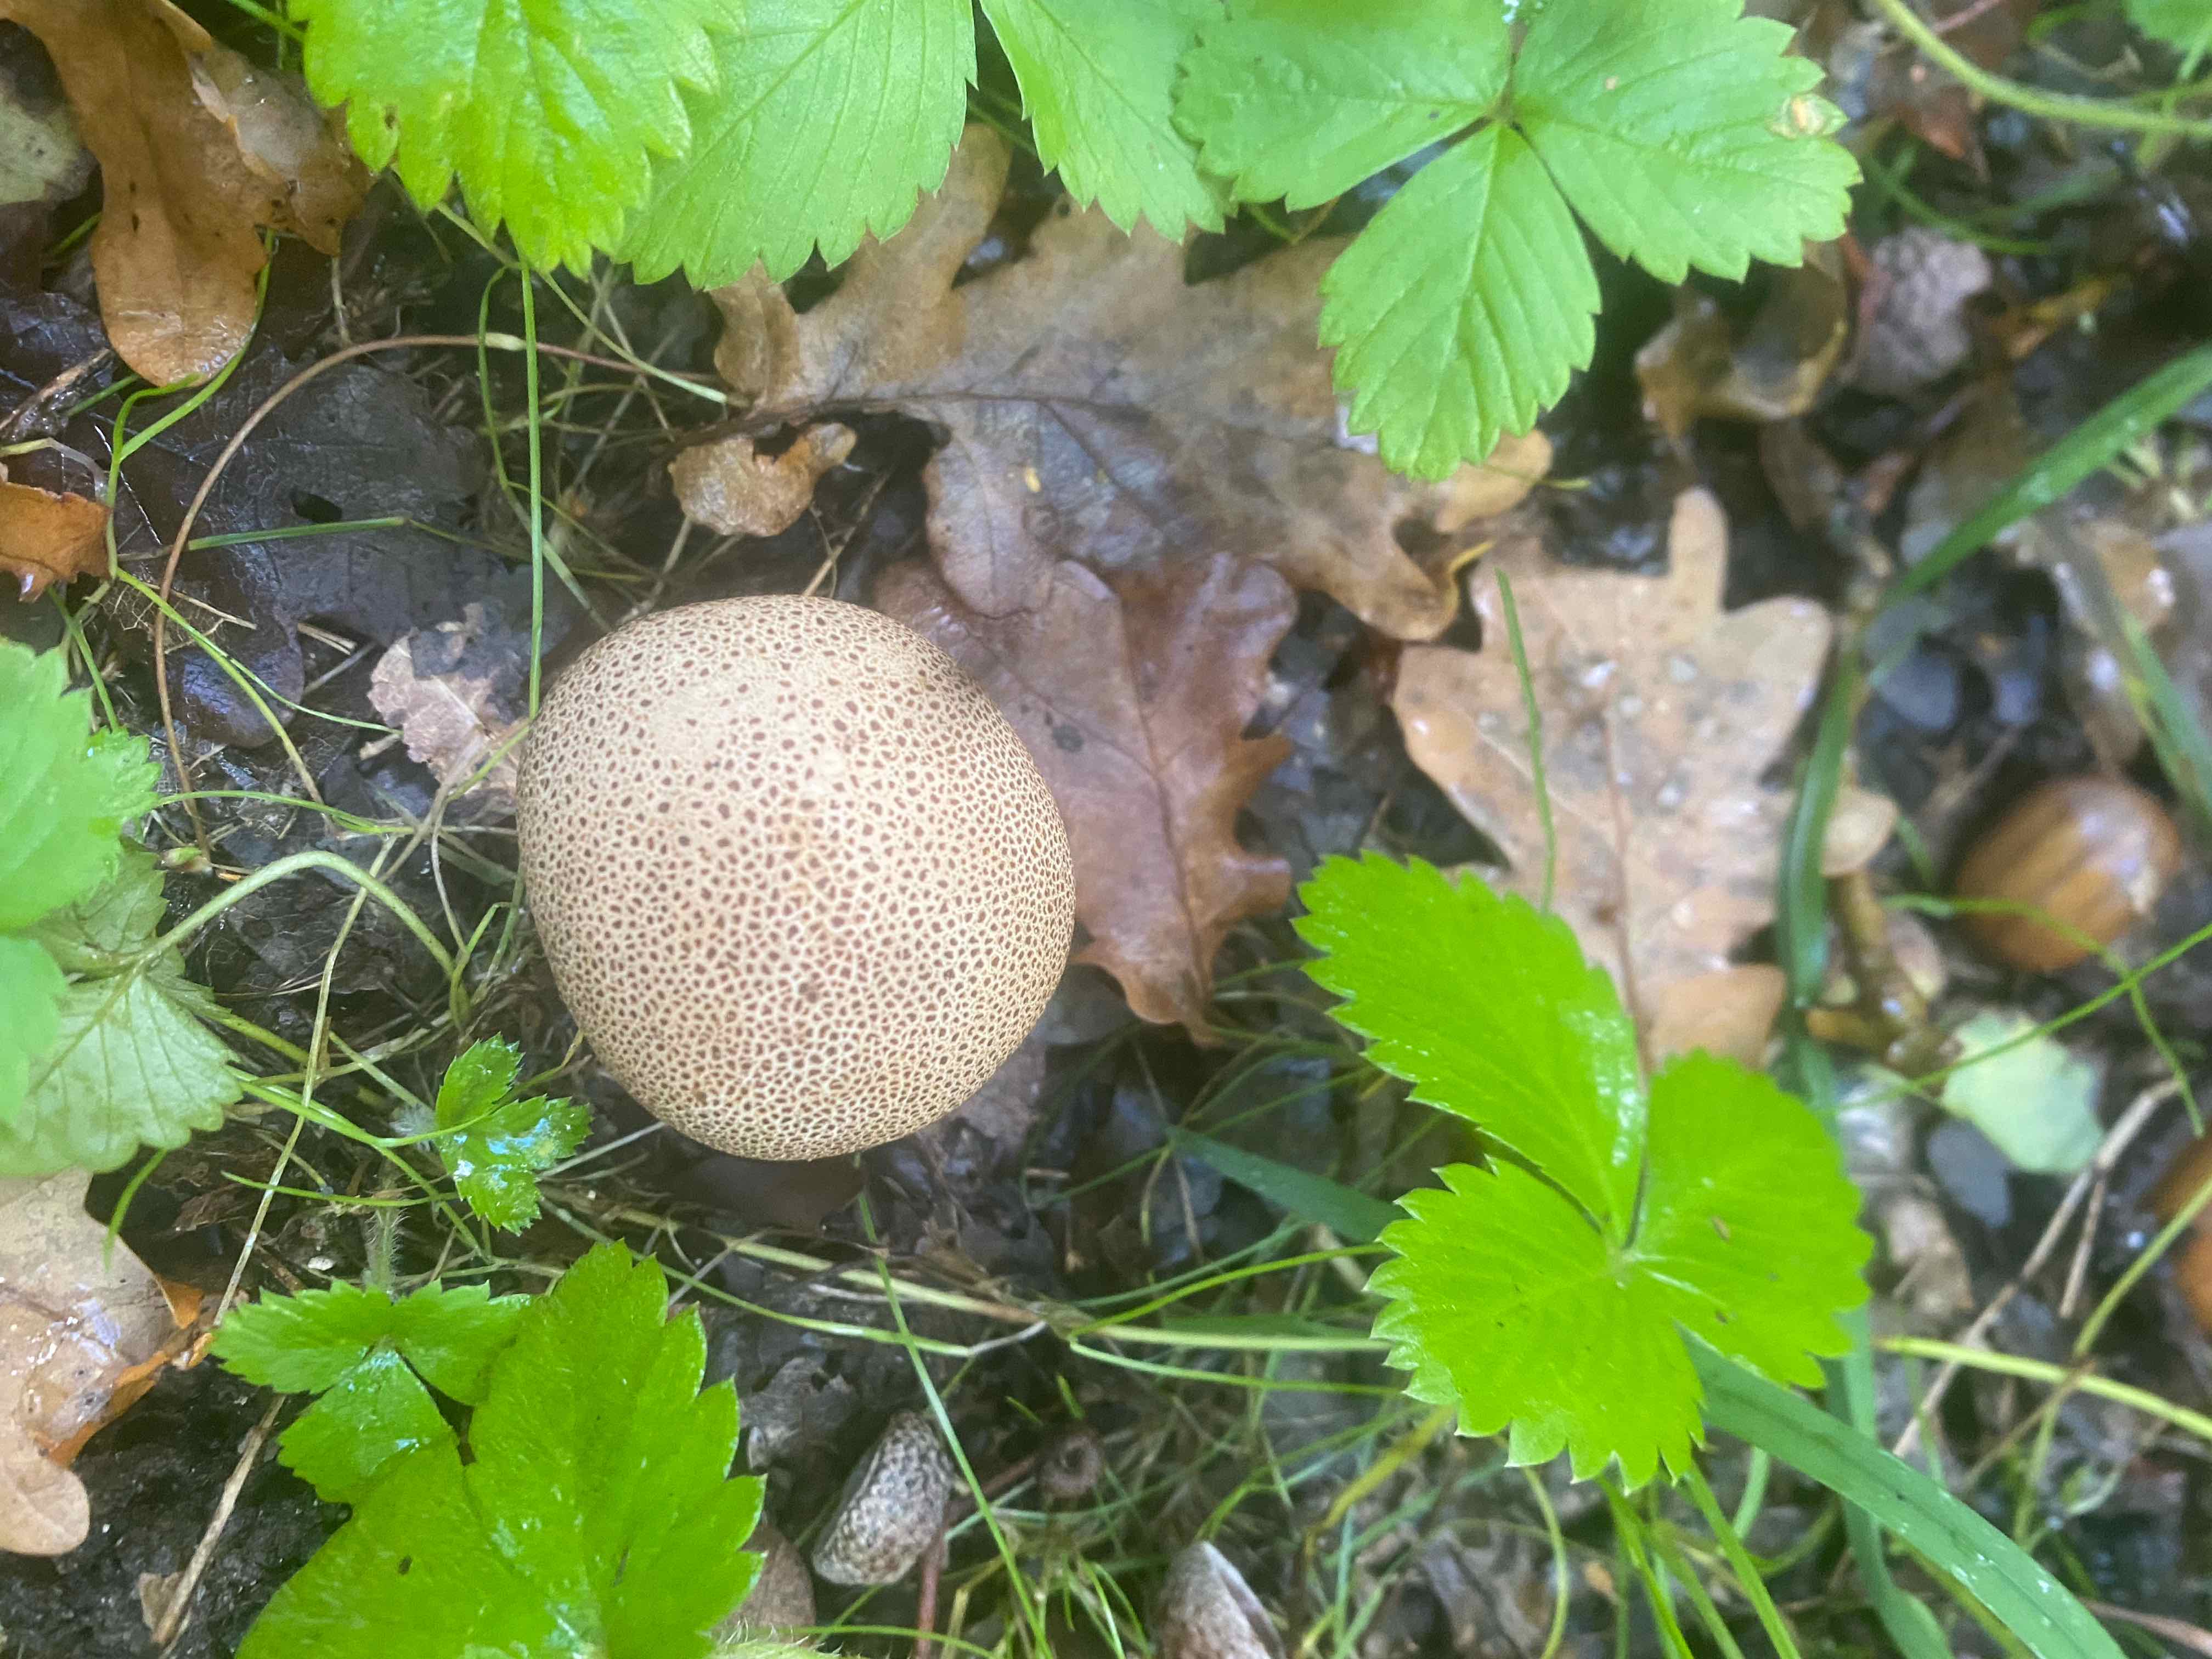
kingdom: Fungi
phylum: Basidiomycota
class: Agaricomycetes
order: Boletales
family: Sclerodermataceae
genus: Scleroderma
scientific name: Scleroderma areolatum
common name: plettet bruskbold
